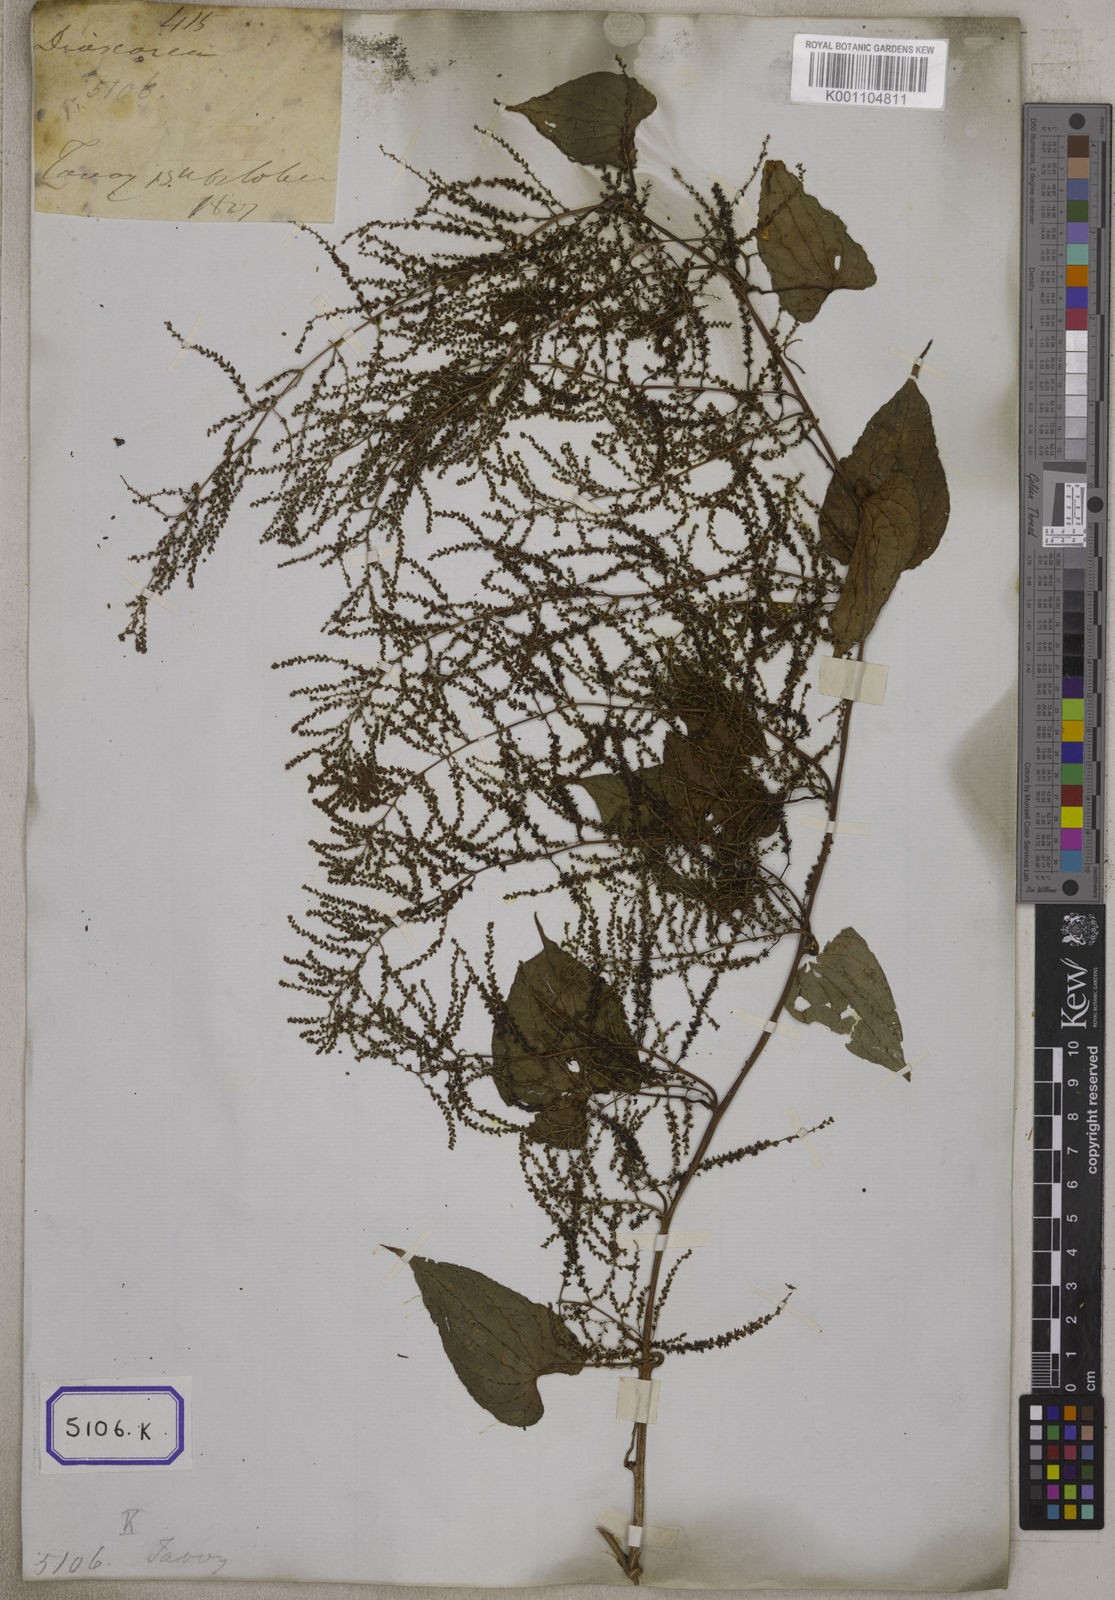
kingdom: Plantae
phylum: Tracheophyta
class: Liliopsida
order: Dioscoreales
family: Dioscoreaceae
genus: Dioscorea
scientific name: Dioscorea
